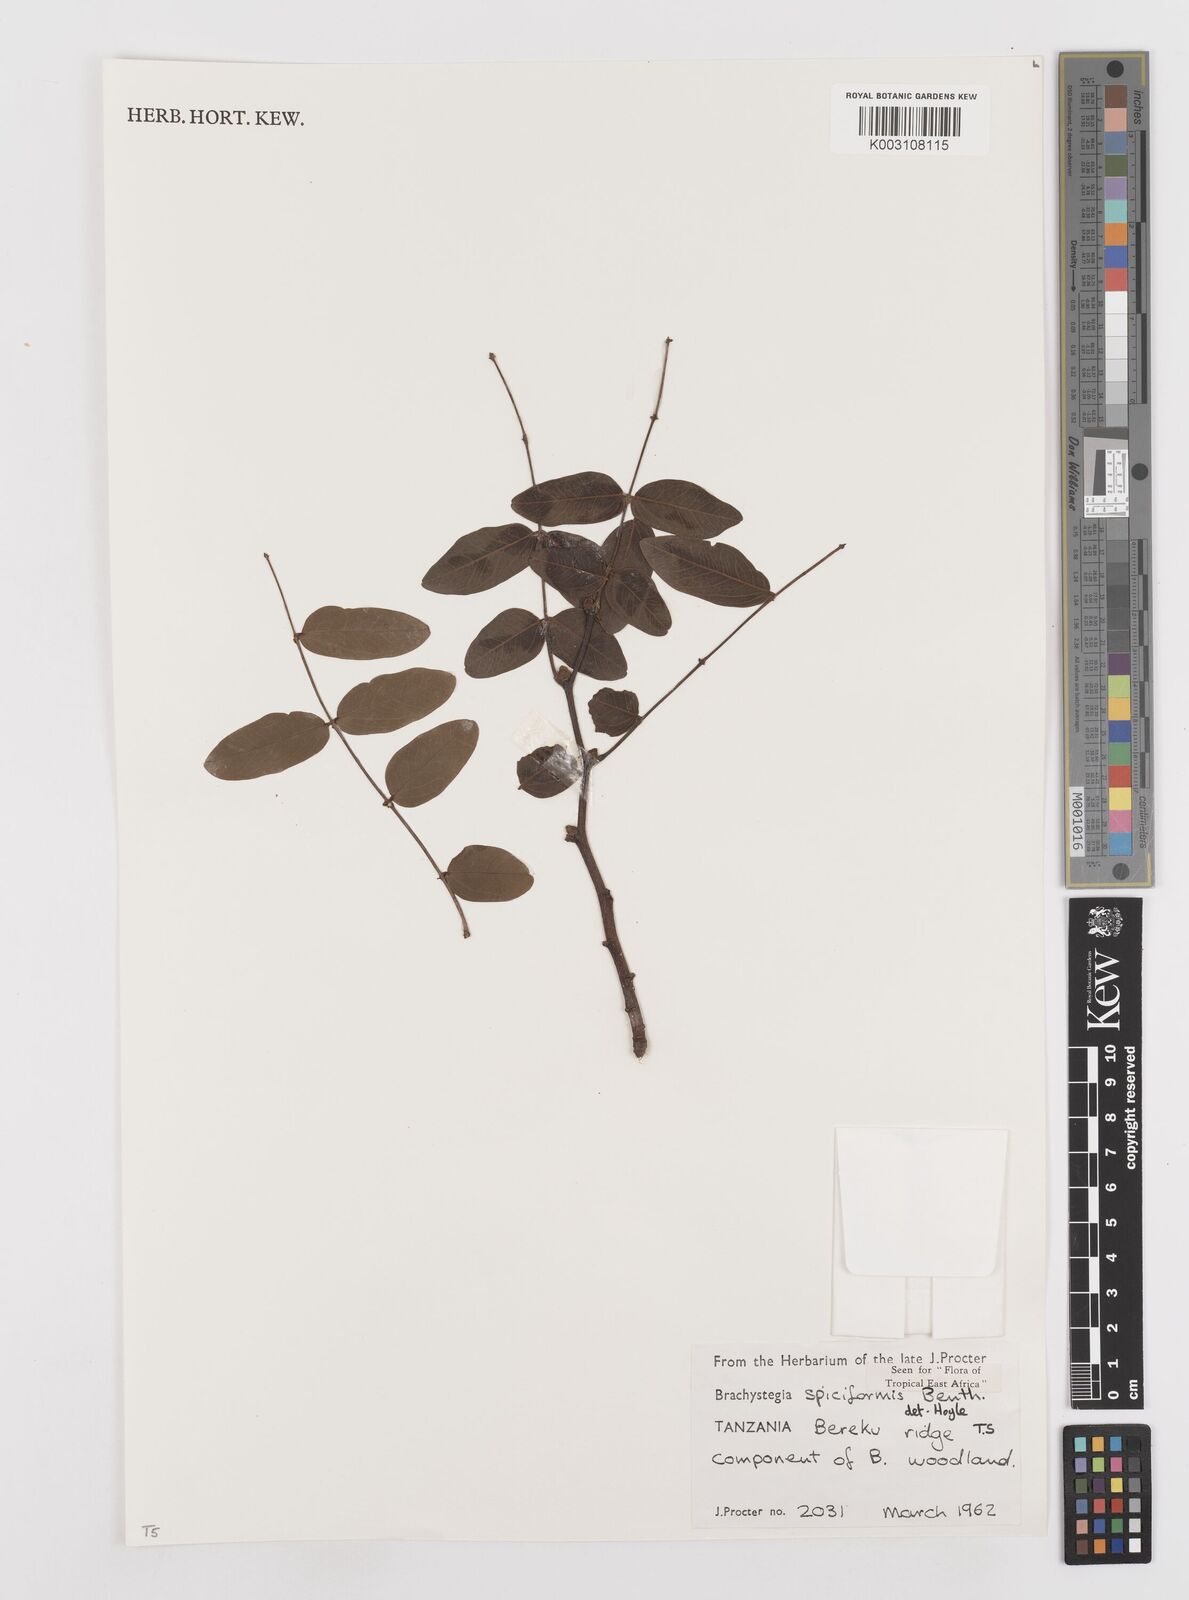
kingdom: Plantae
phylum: Tracheophyta
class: Magnoliopsida
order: Fabales
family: Fabaceae
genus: Brachystegia
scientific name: Brachystegia spiciformis
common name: Zebrawood
